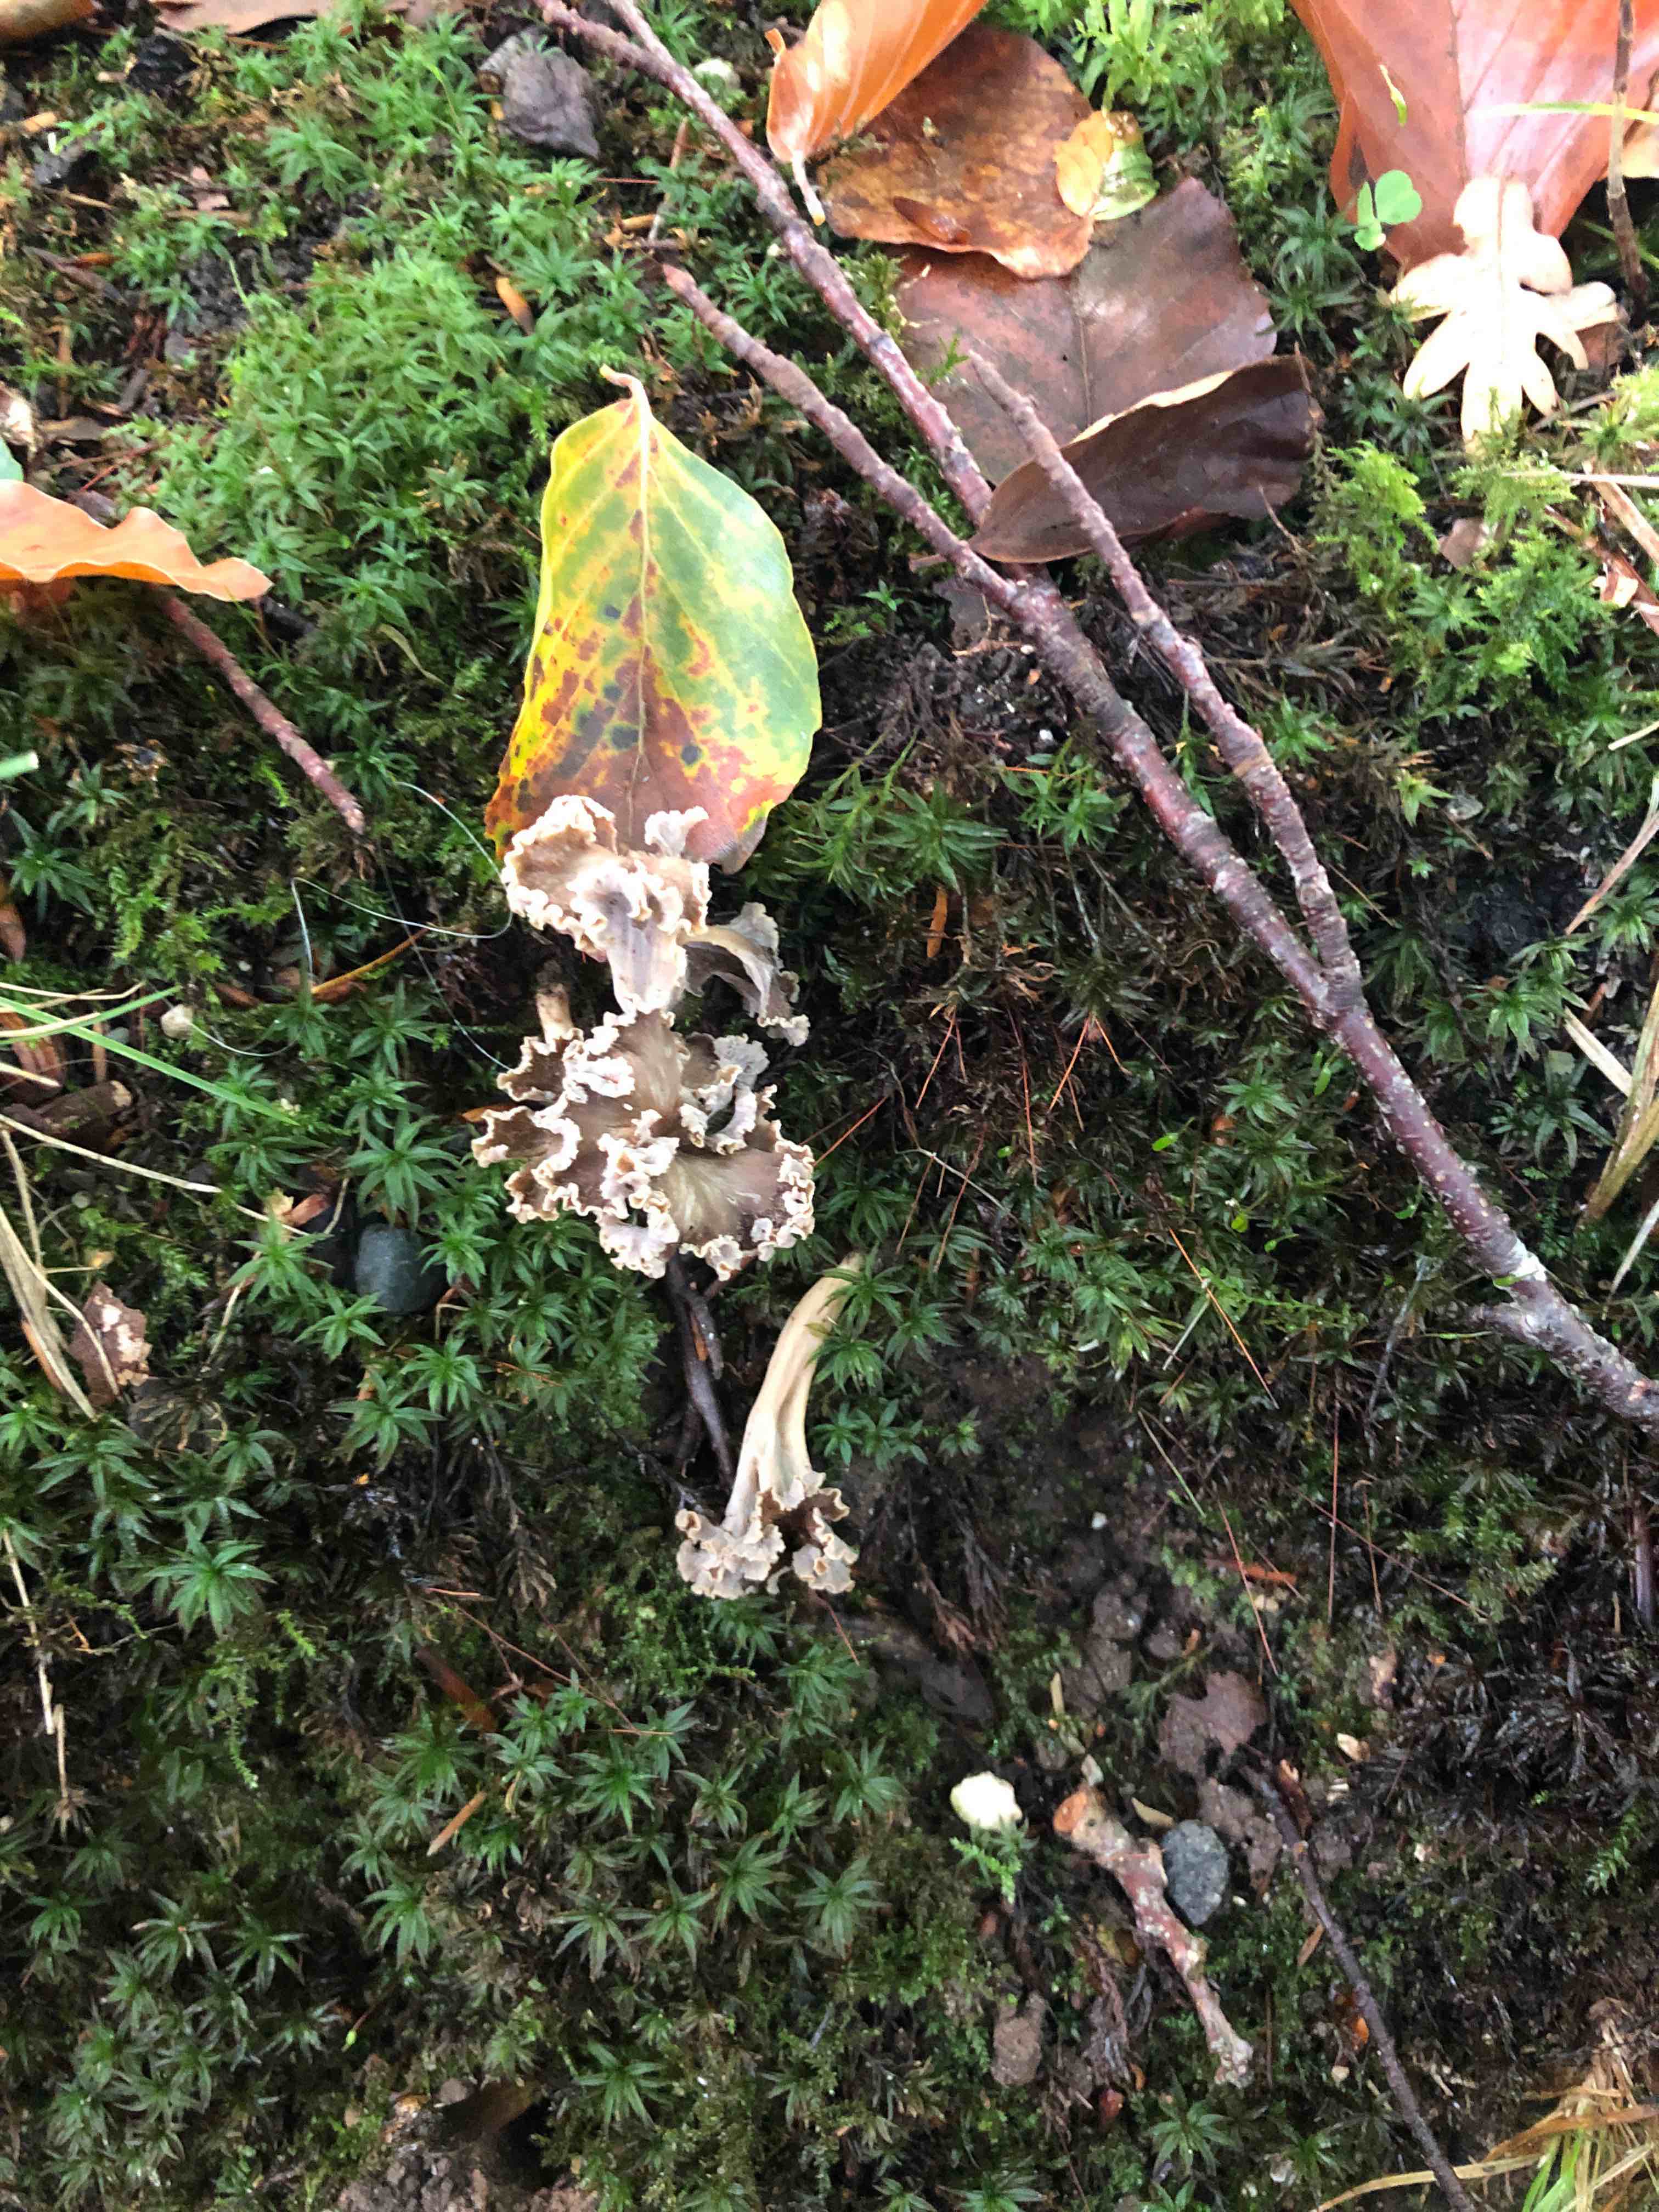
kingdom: Fungi
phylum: Basidiomycota
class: Agaricomycetes
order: Cantharellales
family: Hydnaceae
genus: Craterellus
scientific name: Craterellus undulatus
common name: liden kantarel
